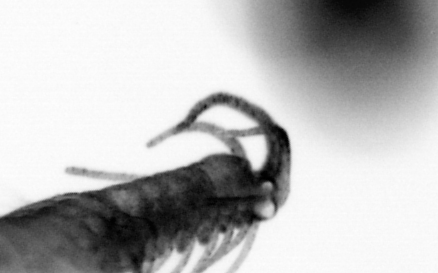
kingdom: Animalia
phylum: Annelida
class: Polychaeta
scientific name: Polychaeta
